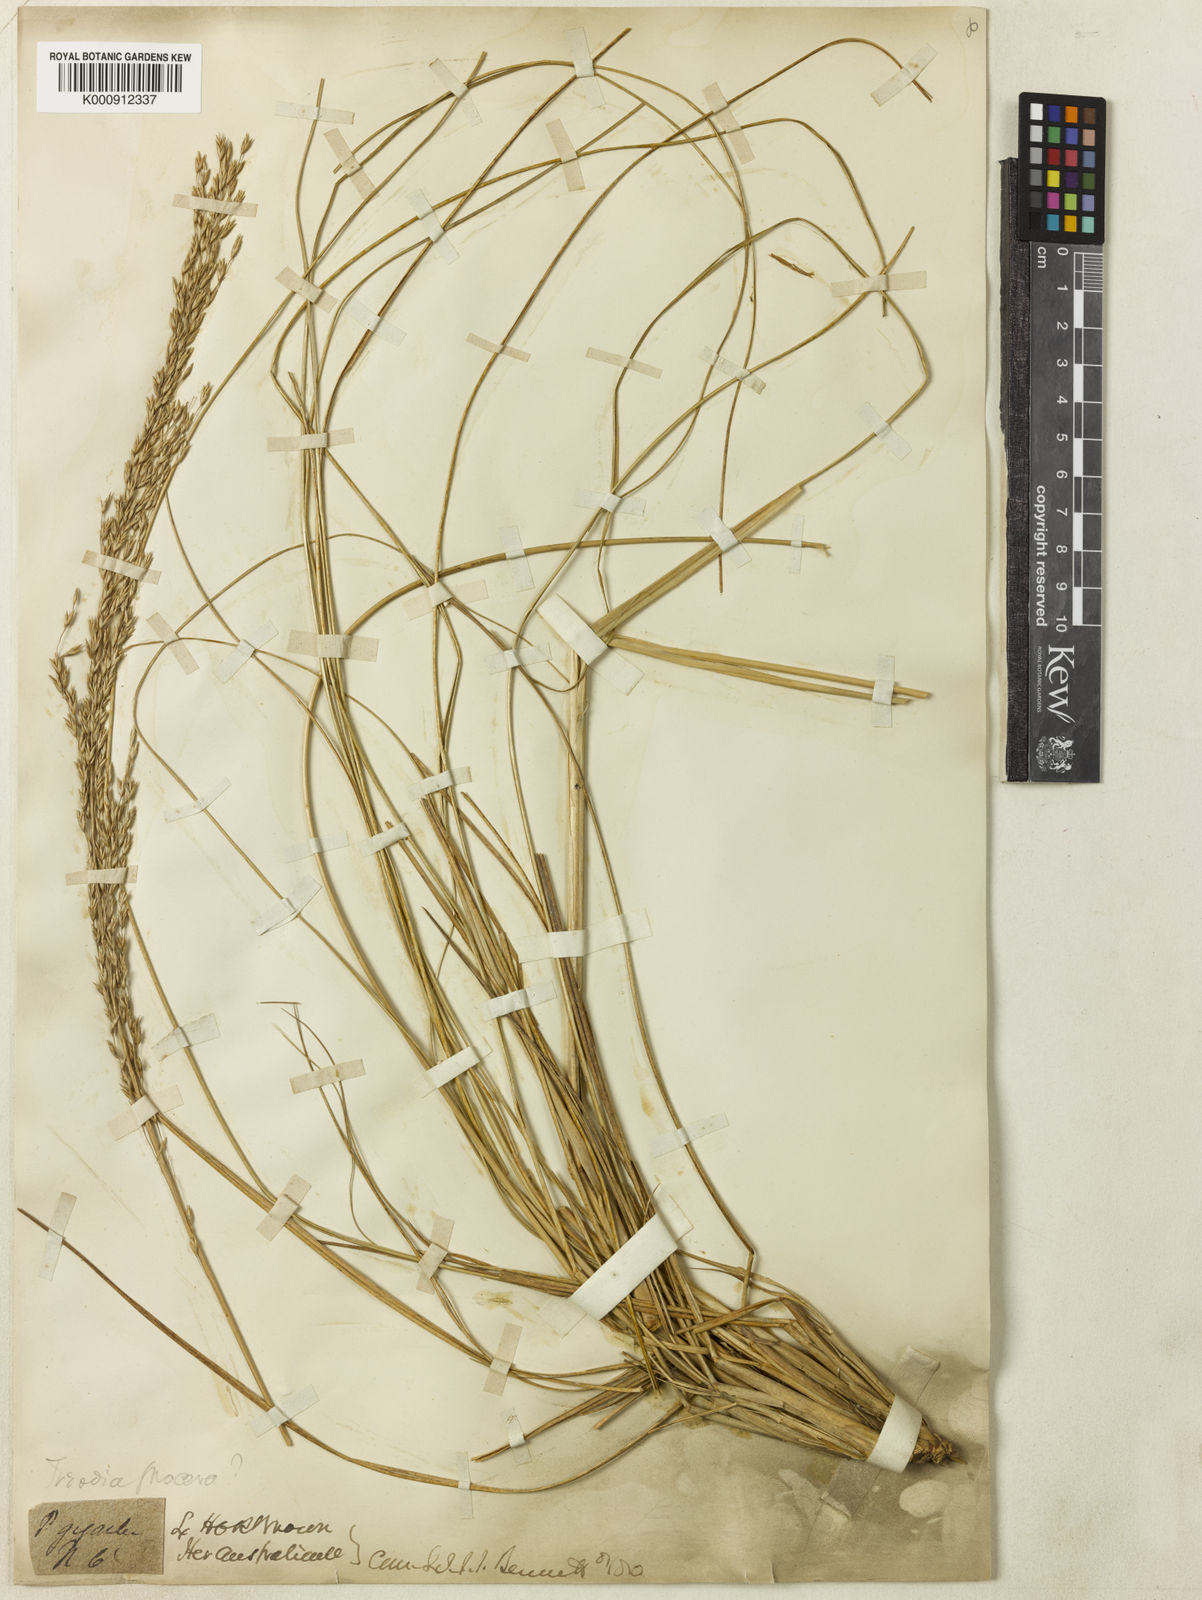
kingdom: Plantae
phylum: Tracheophyta
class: Liliopsida
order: Poales
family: Poaceae
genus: Triodia
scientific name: Triodia procera
